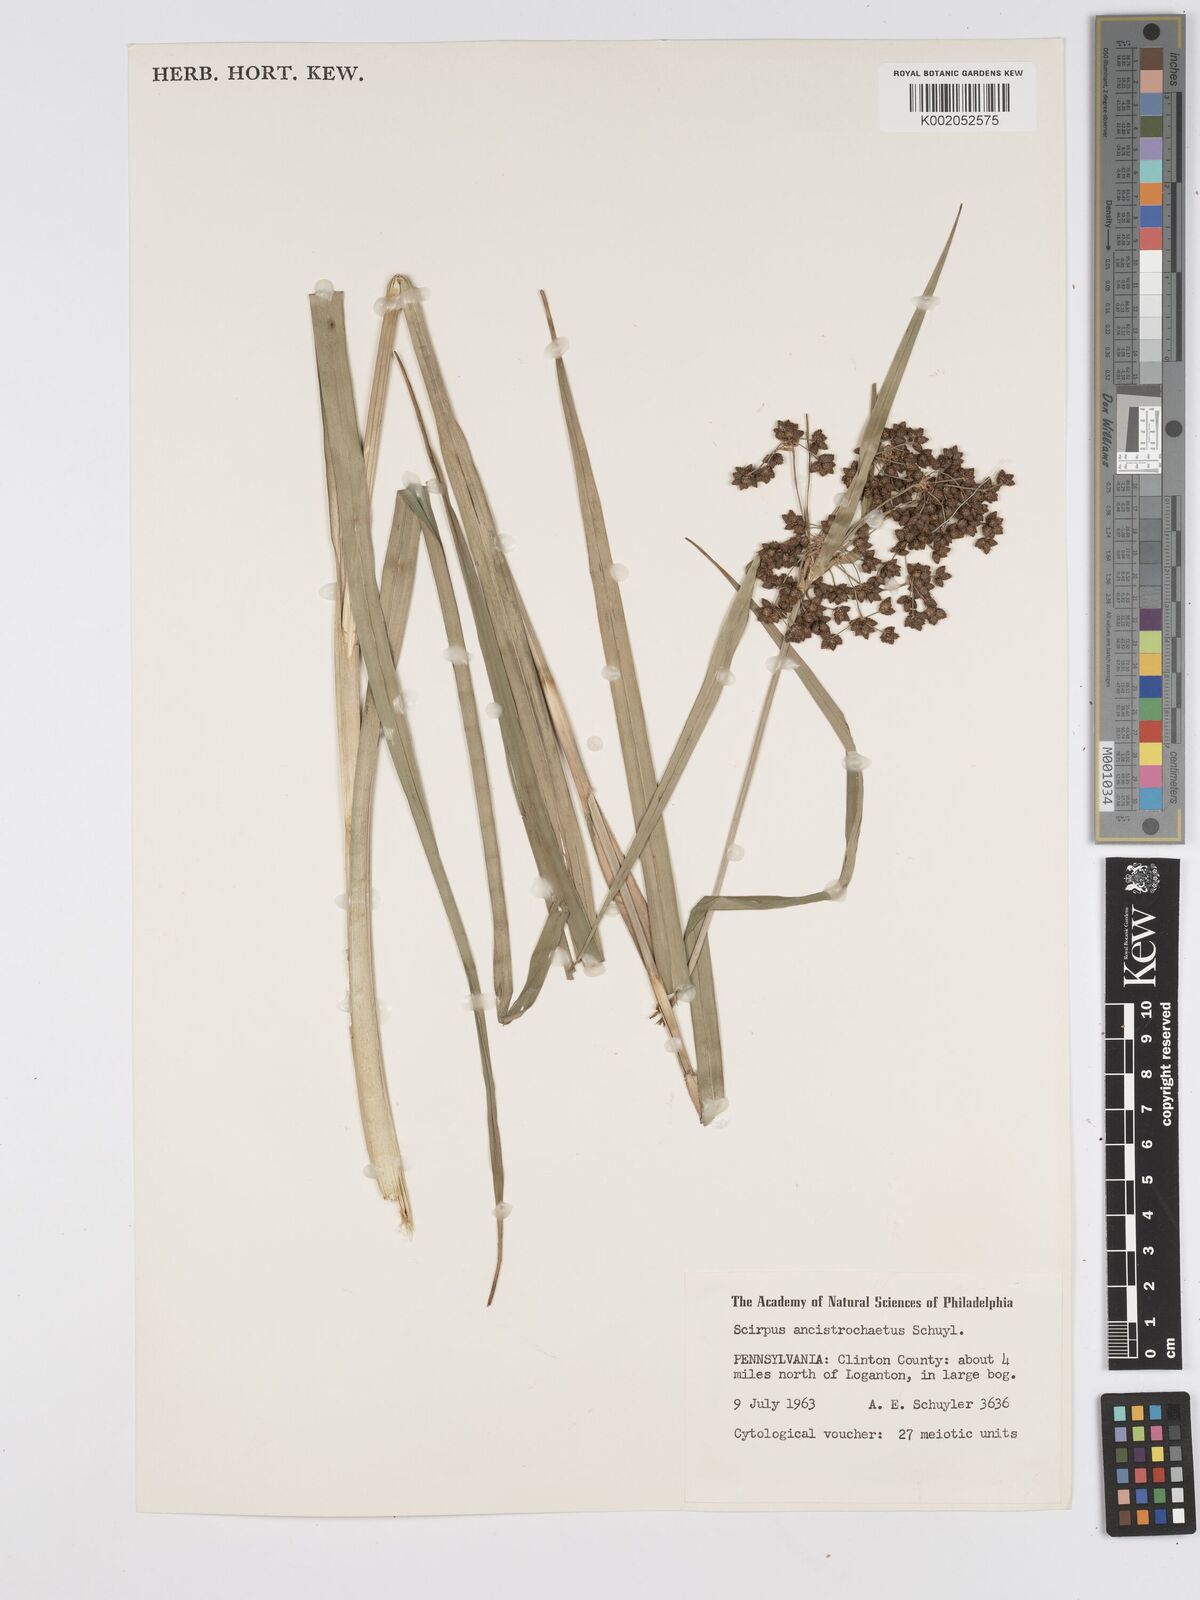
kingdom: Plantae
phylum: Tracheophyta
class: Liliopsida
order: Poales
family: Cyperaceae
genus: Scirpus
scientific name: Scirpus ancistrochaetus
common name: Northeastern bulrush
